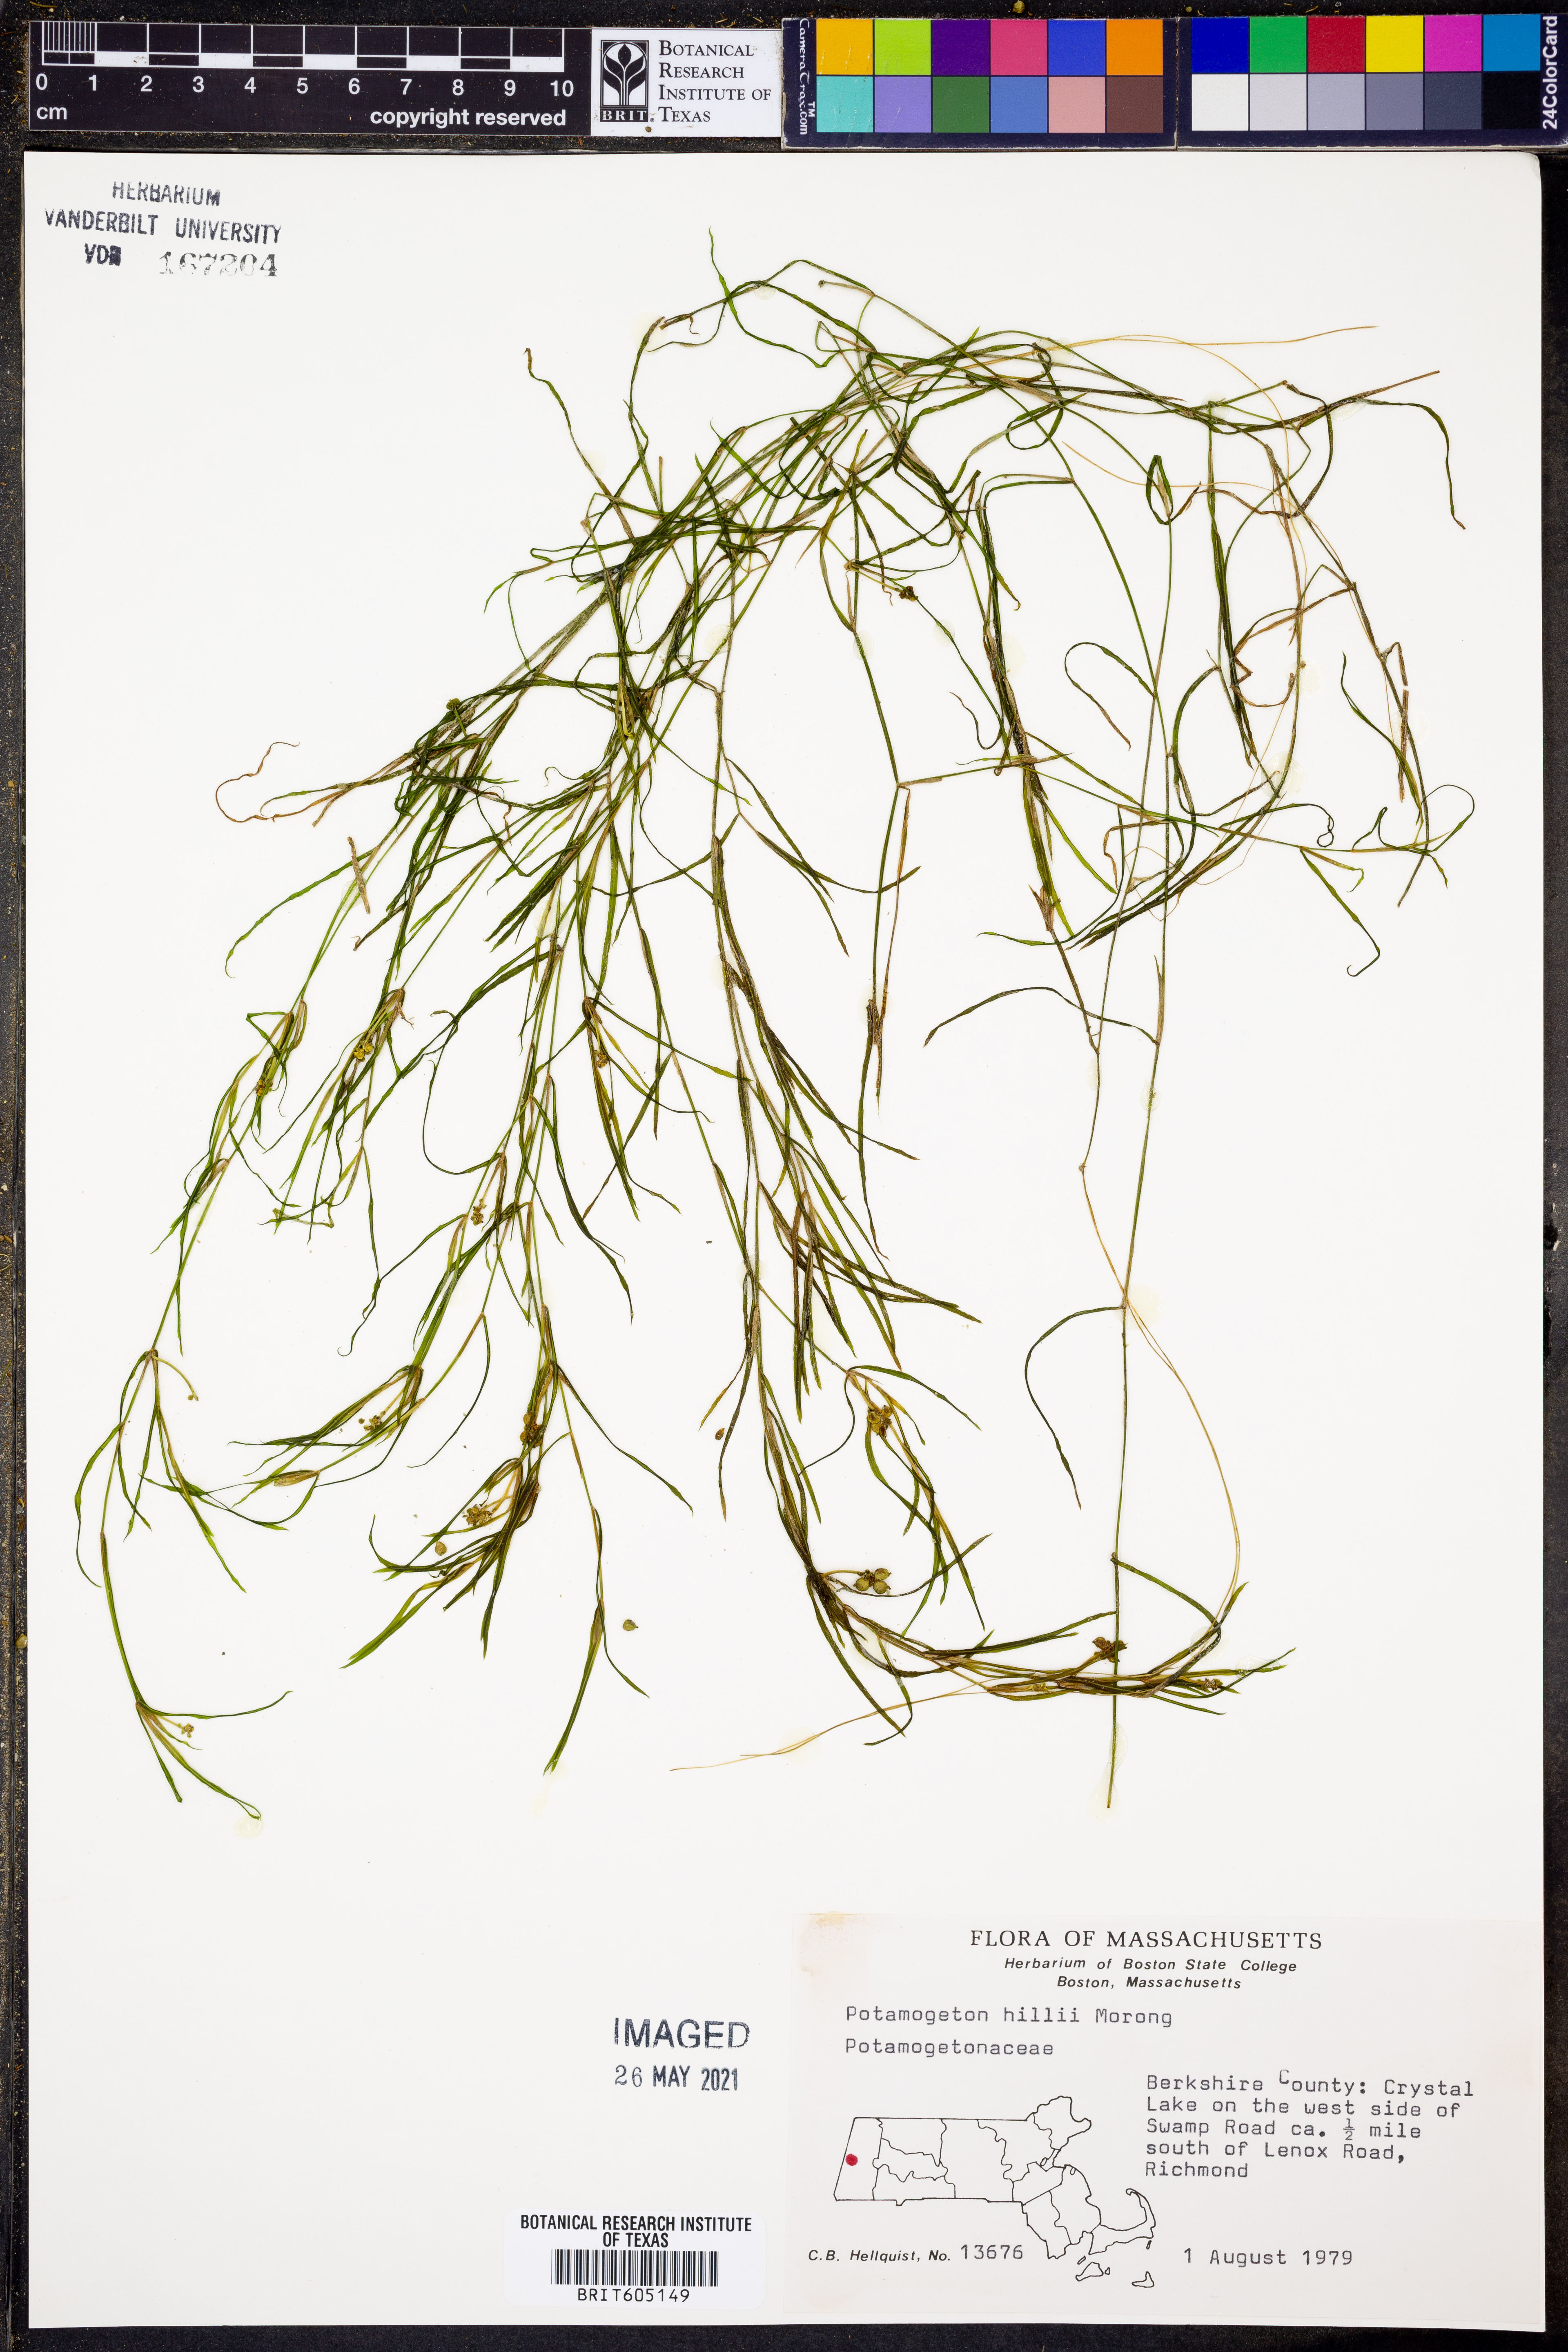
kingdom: Plantae
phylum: Tracheophyta
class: Liliopsida
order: Alismatales
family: Potamogetonaceae
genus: Potamogeton
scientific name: Potamogeton hillii
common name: Hill's pondweed
